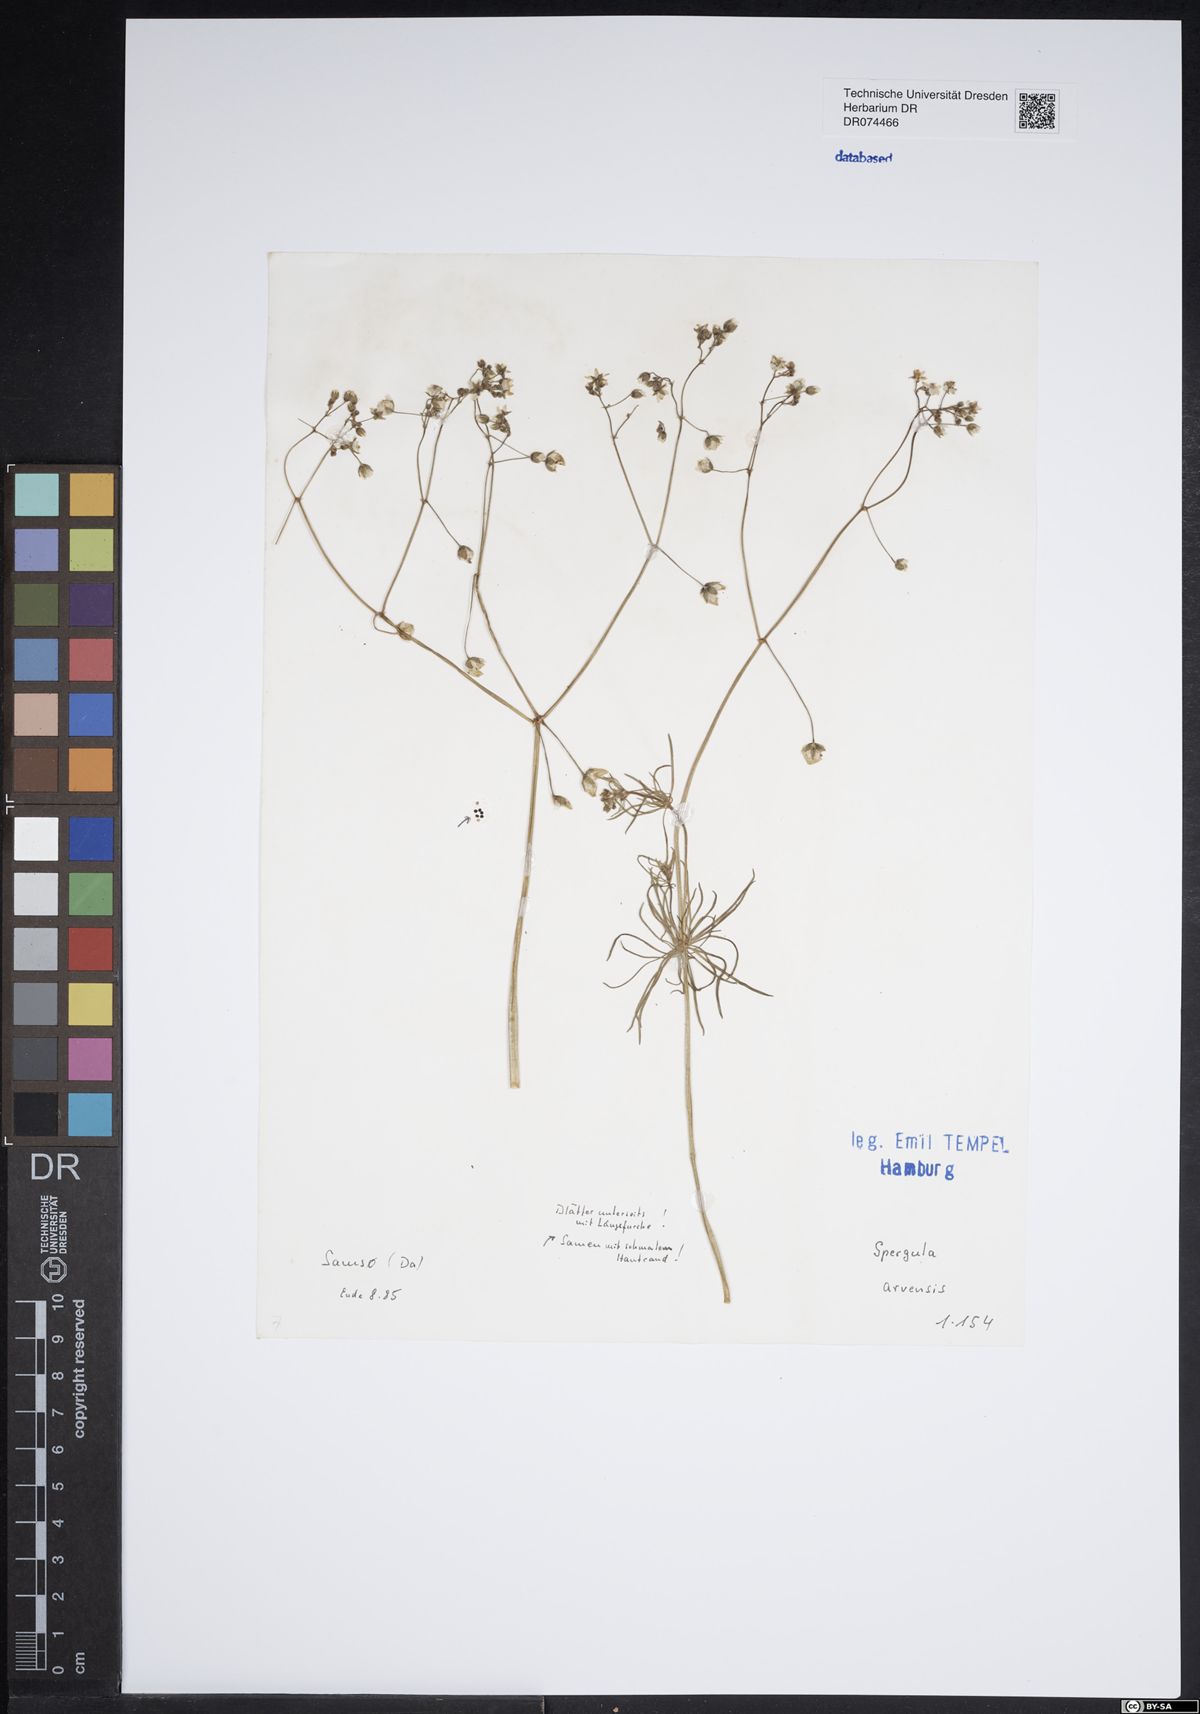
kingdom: Plantae
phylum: Tracheophyta
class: Magnoliopsida
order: Caryophyllales
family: Caryophyllaceae
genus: Spergula
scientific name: Spergula arvensis
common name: Corn spurrey
